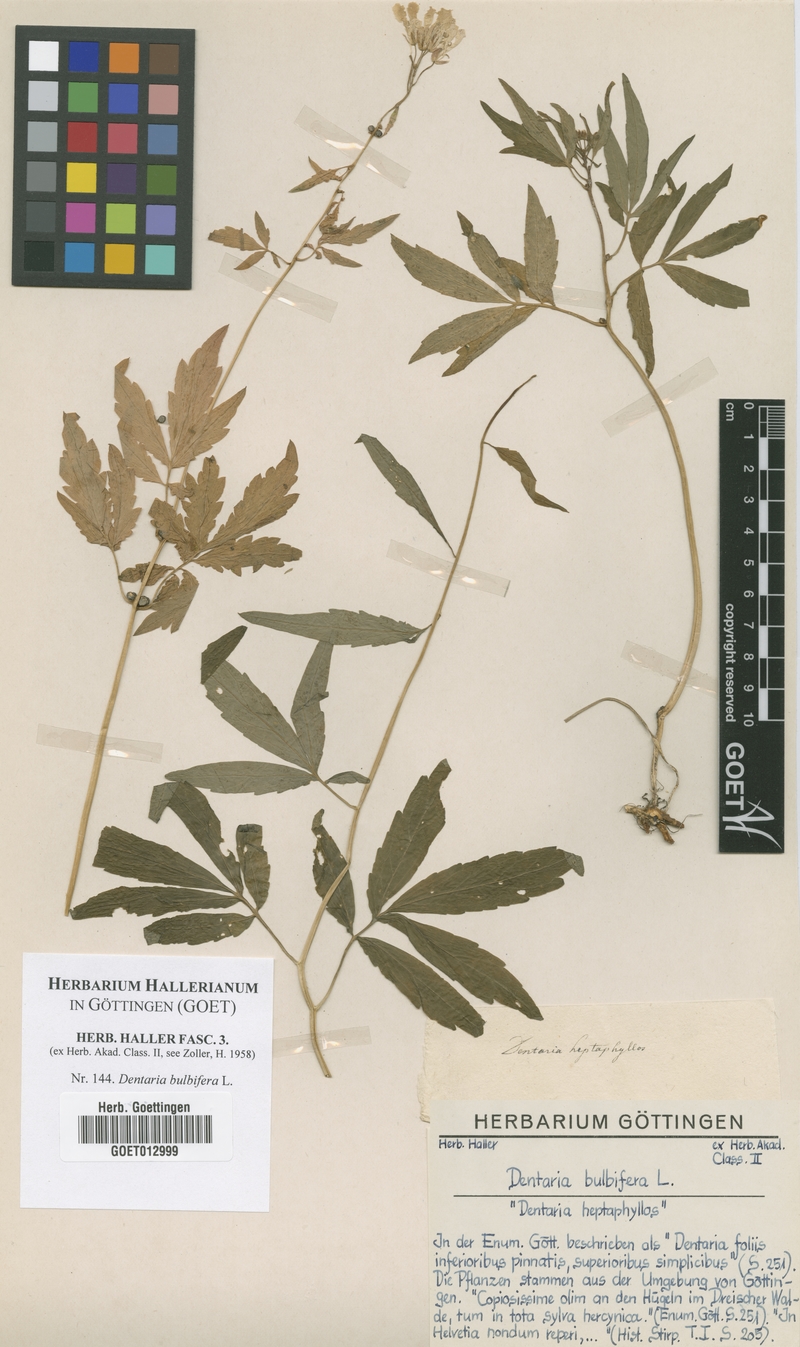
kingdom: Plantae
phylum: Tracheophyta
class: Magnoliopsida
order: Brassicales
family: Brassicaceae
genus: Cardamine
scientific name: Cardamine bulbifera
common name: Coralroot bittercress
